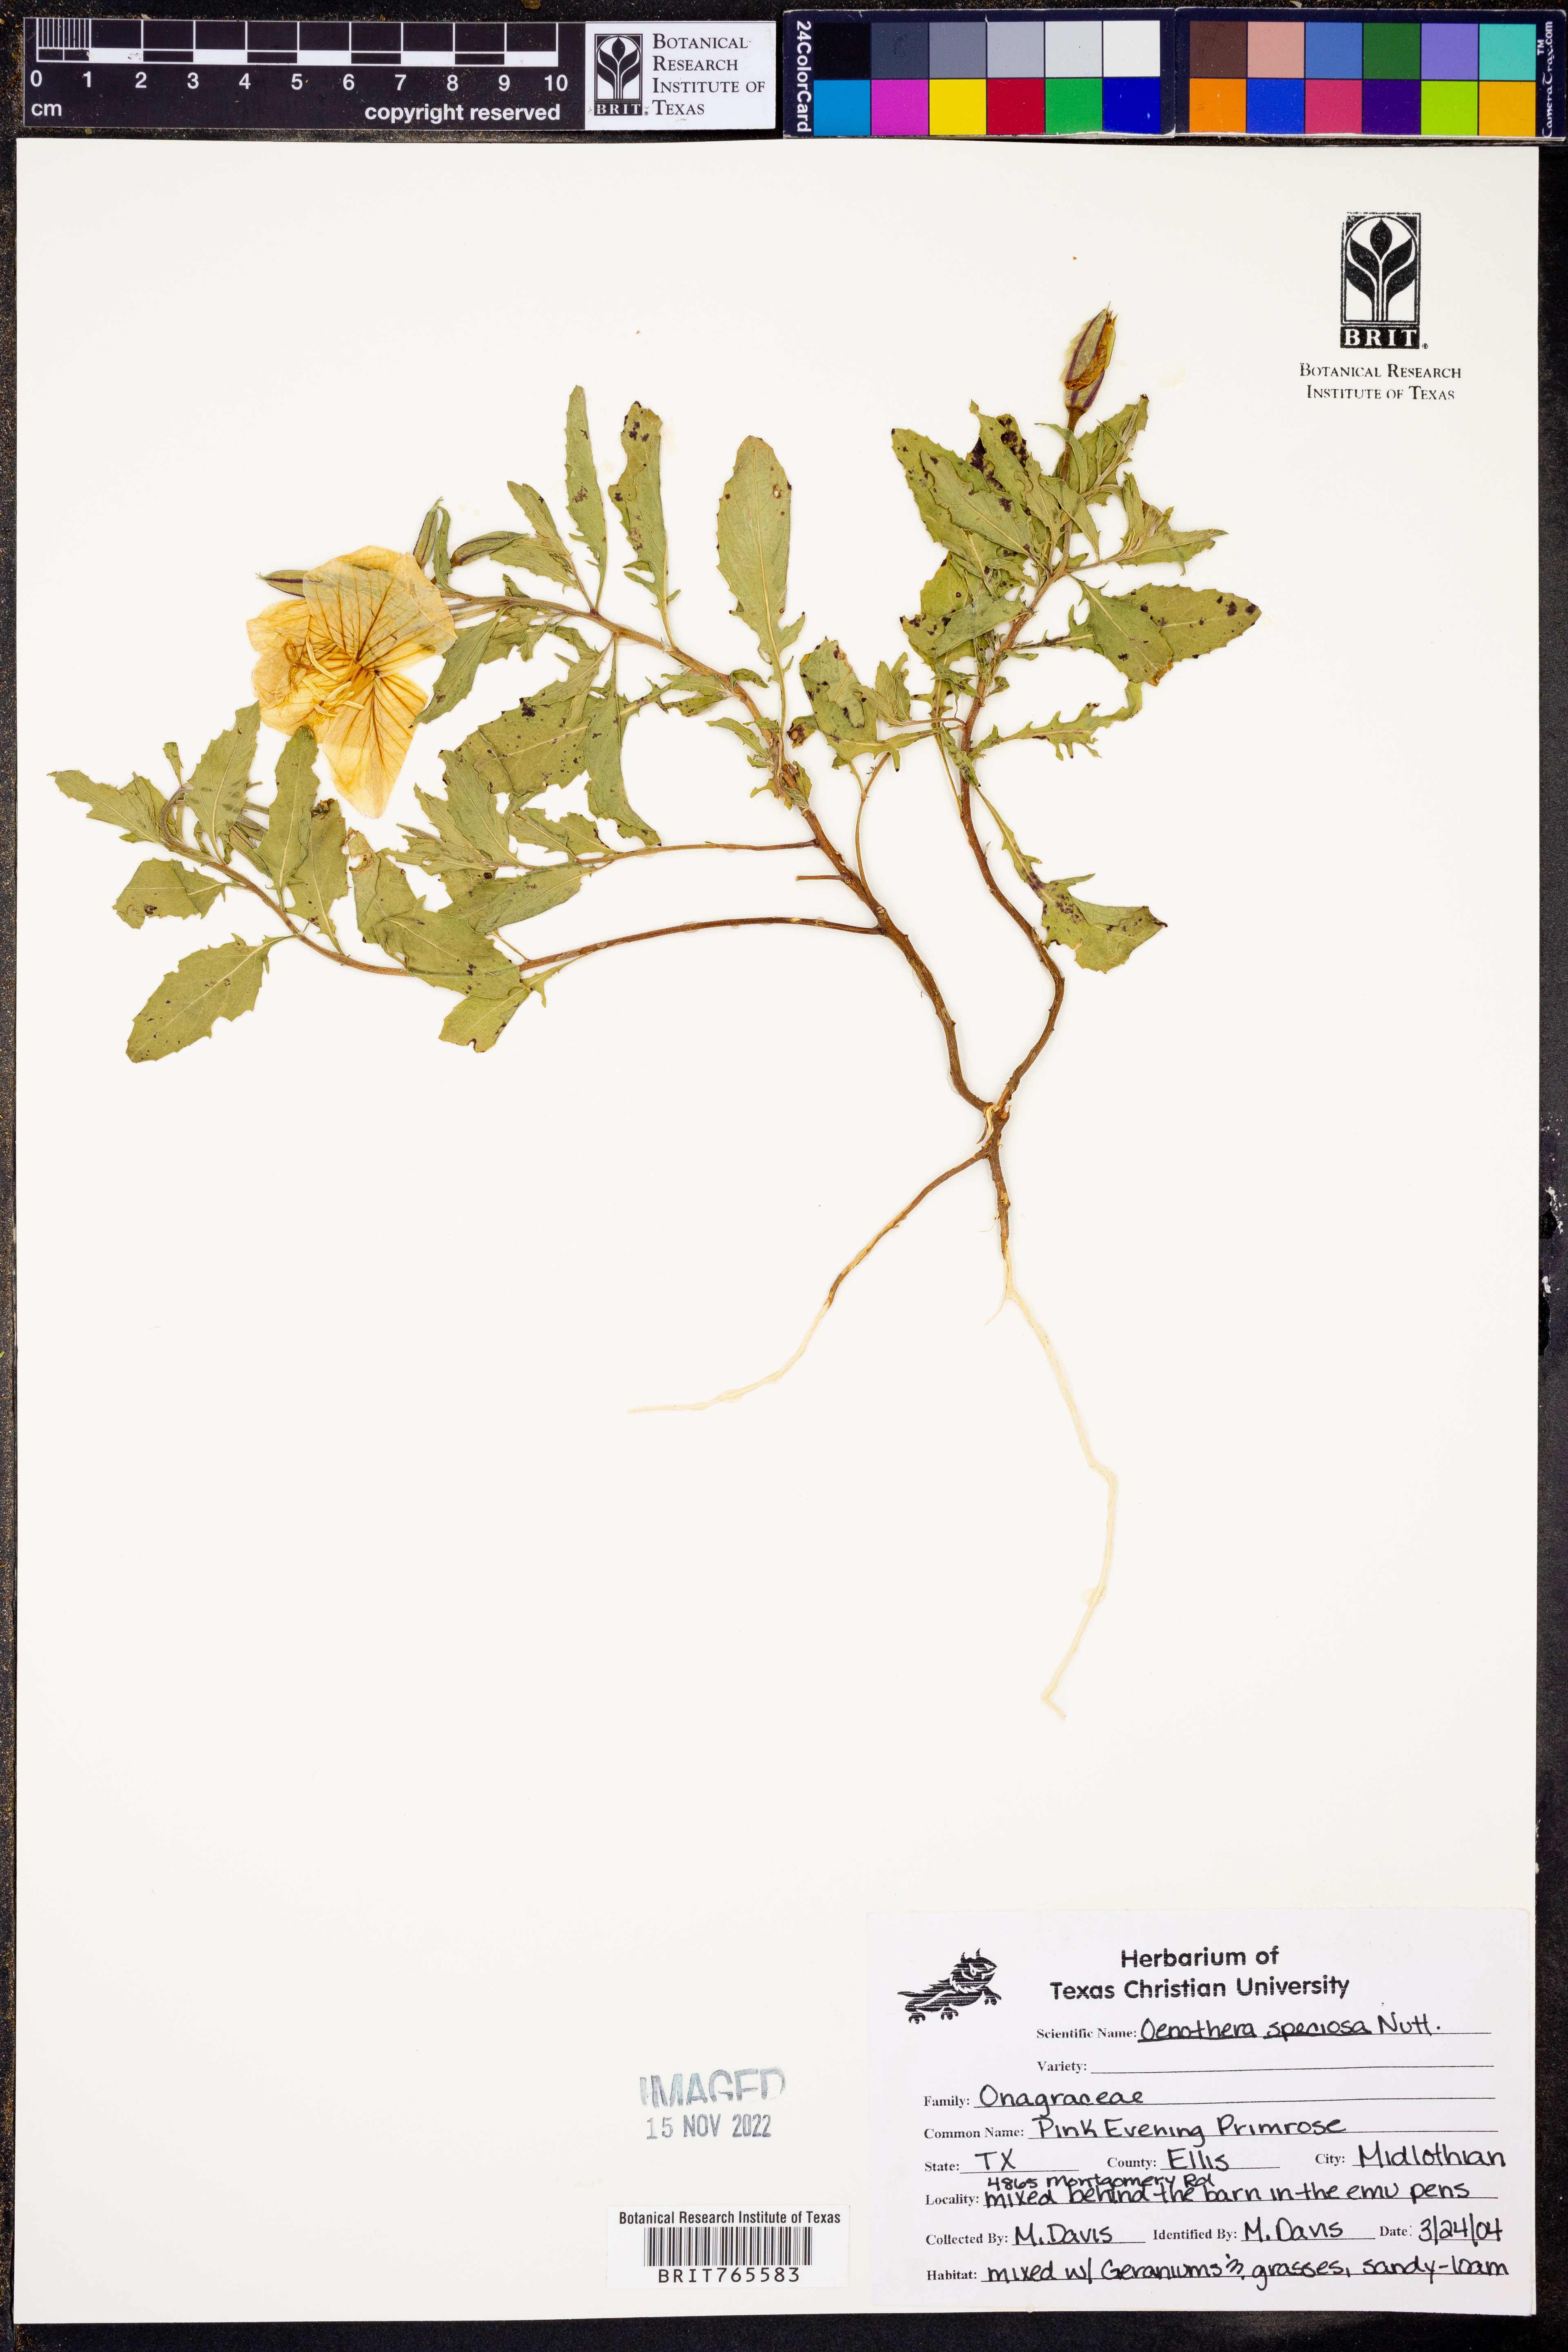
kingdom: Plantae
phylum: Tracheophyta
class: Magnoliopsida
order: Myrtales
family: Onagraceae
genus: Oenothera
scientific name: Oenothera speciosa
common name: White evening-primrose
